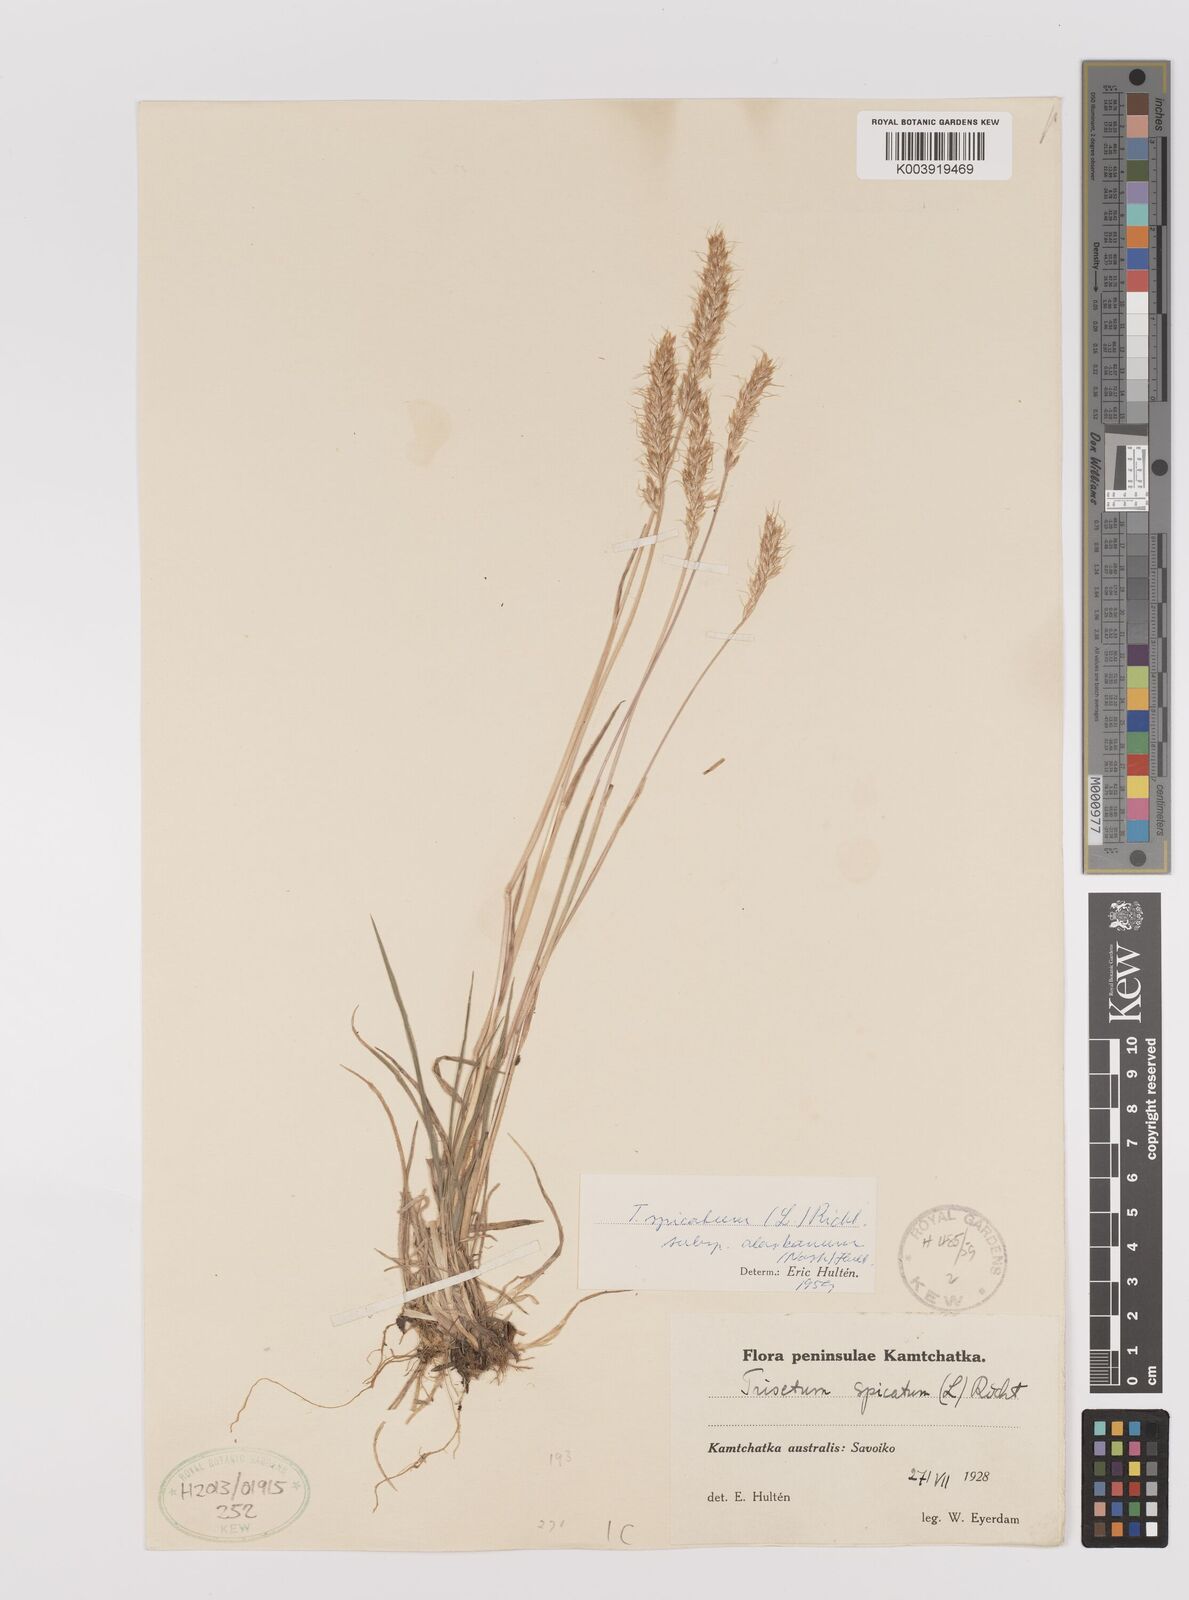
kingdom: Plantae
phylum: Tracheophyta
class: Liliopsida
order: Poales
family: Poaceae
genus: Koeleria
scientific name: Koeleria spicata
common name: Mountain trisetum
